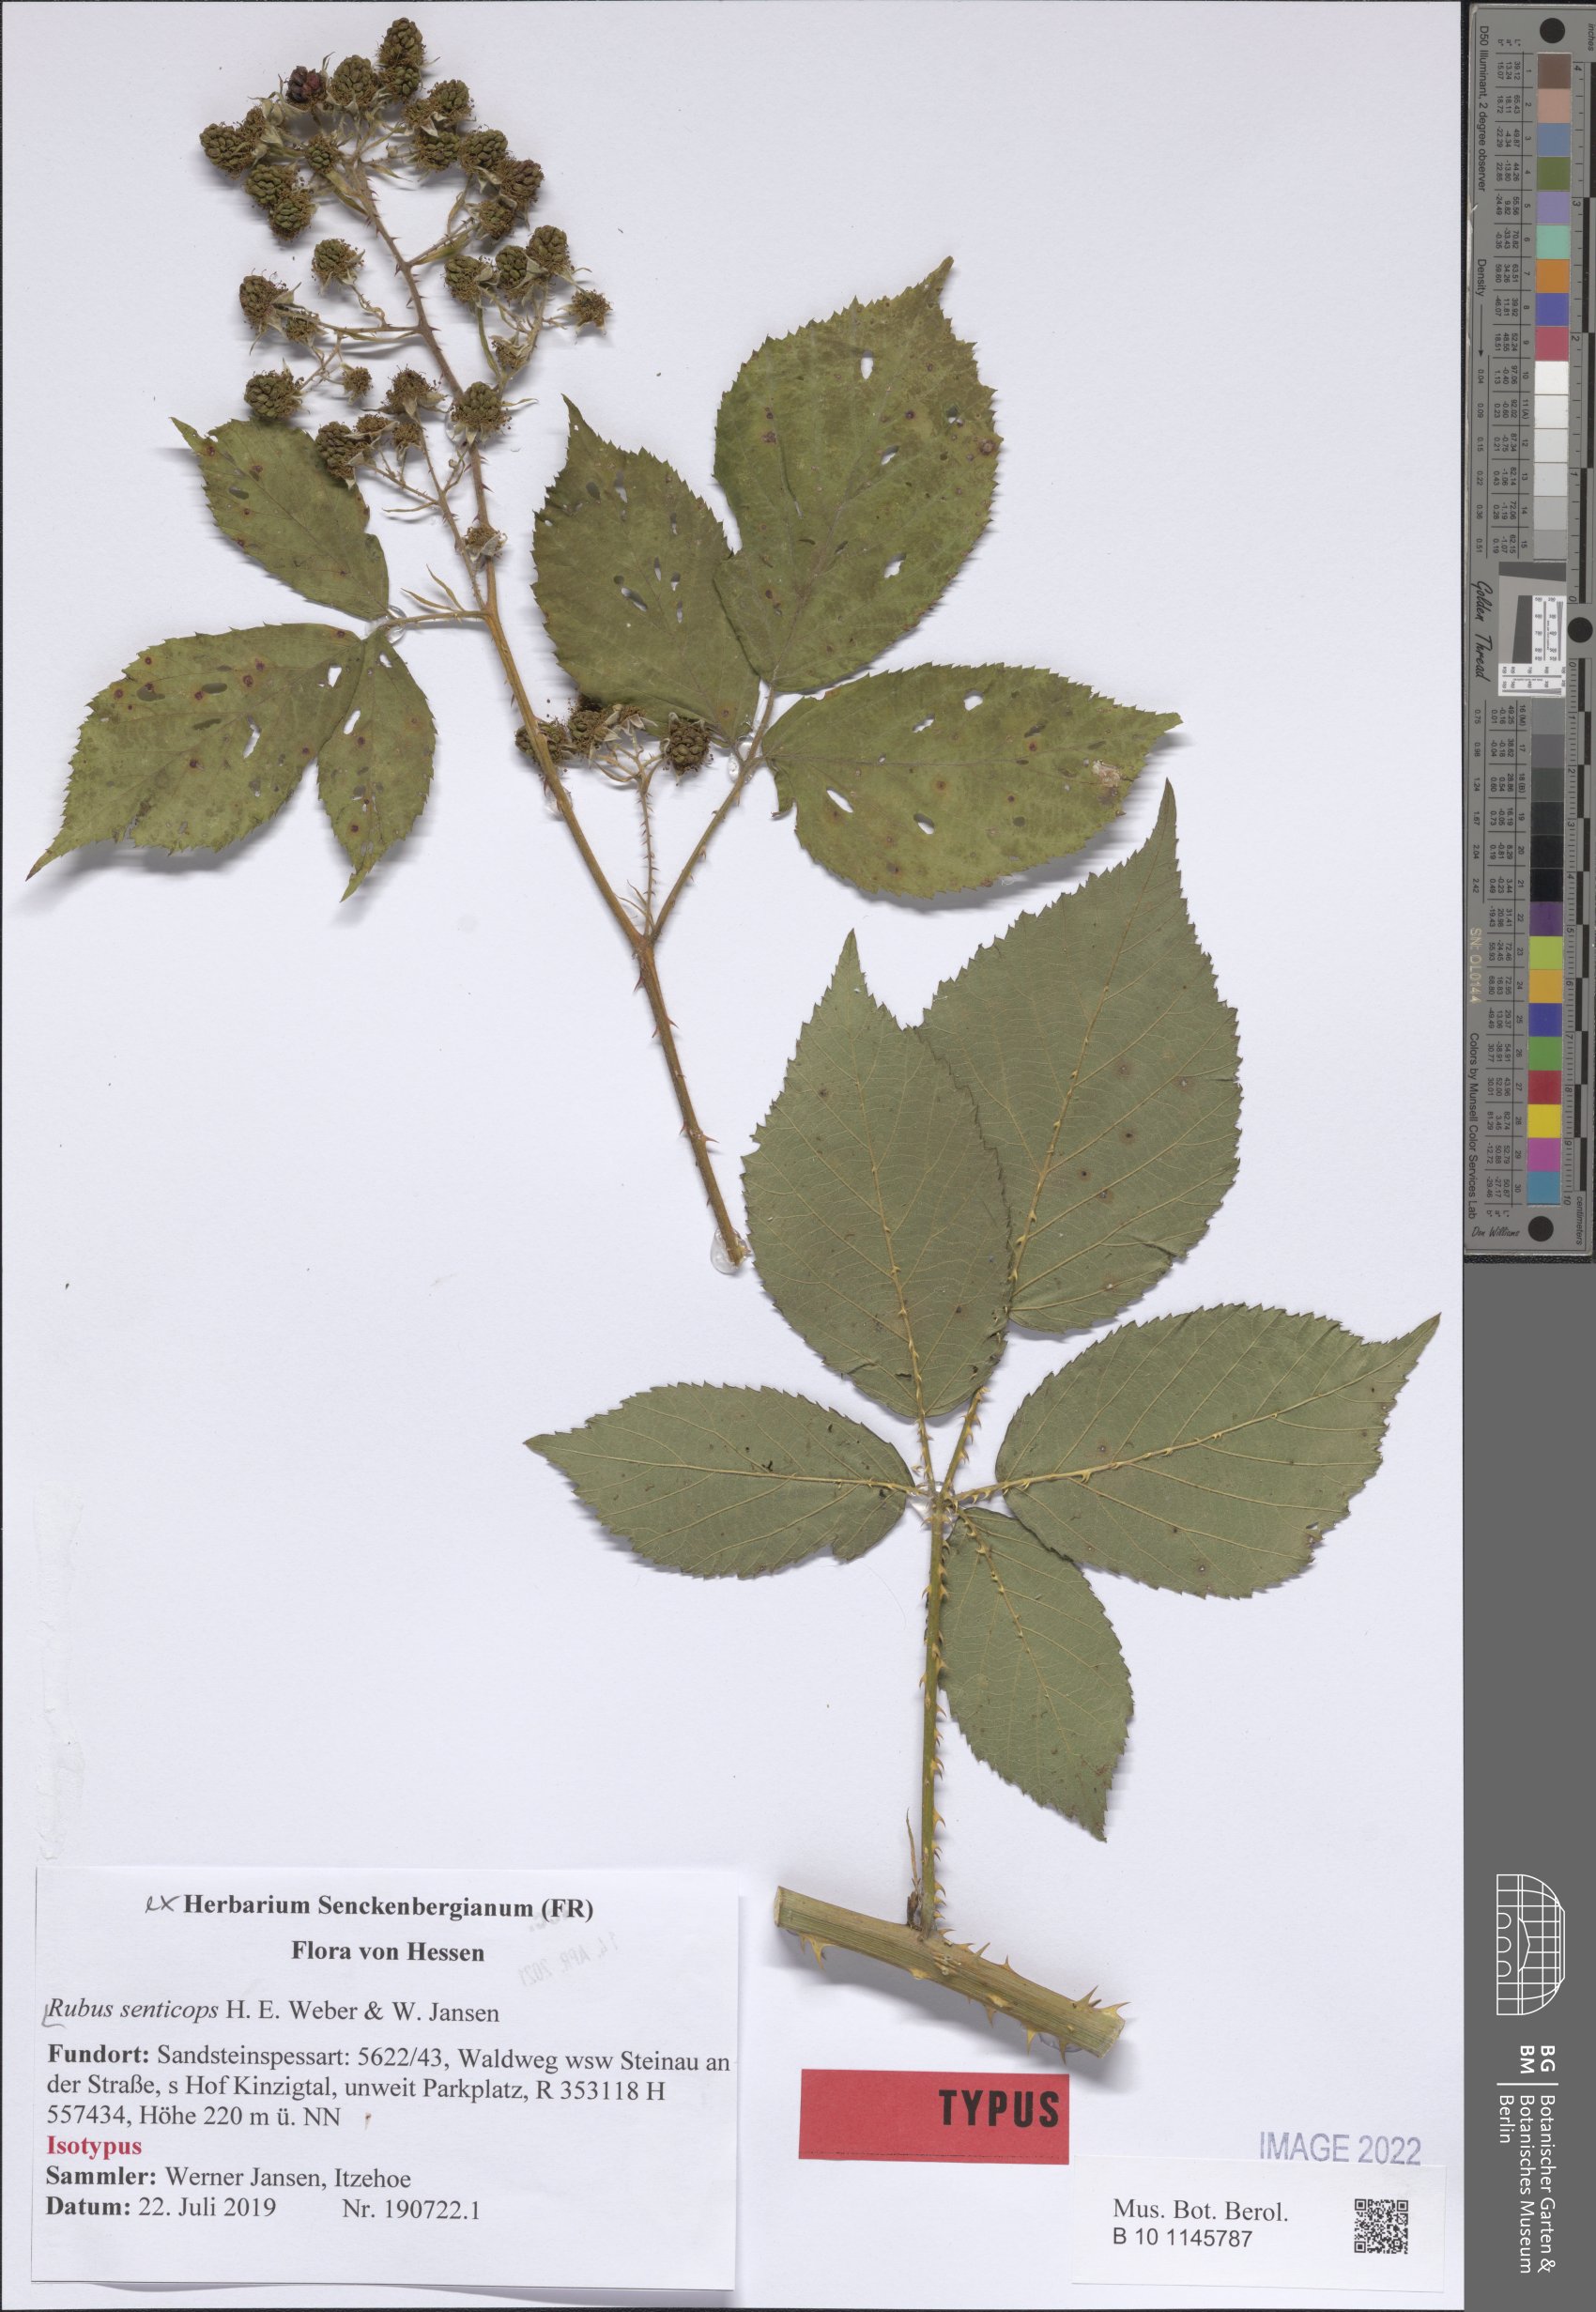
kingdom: Plantae
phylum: Tracheophyta
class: Magnoliopsida
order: Rosales
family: Rosaceae
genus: Rubus
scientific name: Rubus senticops
